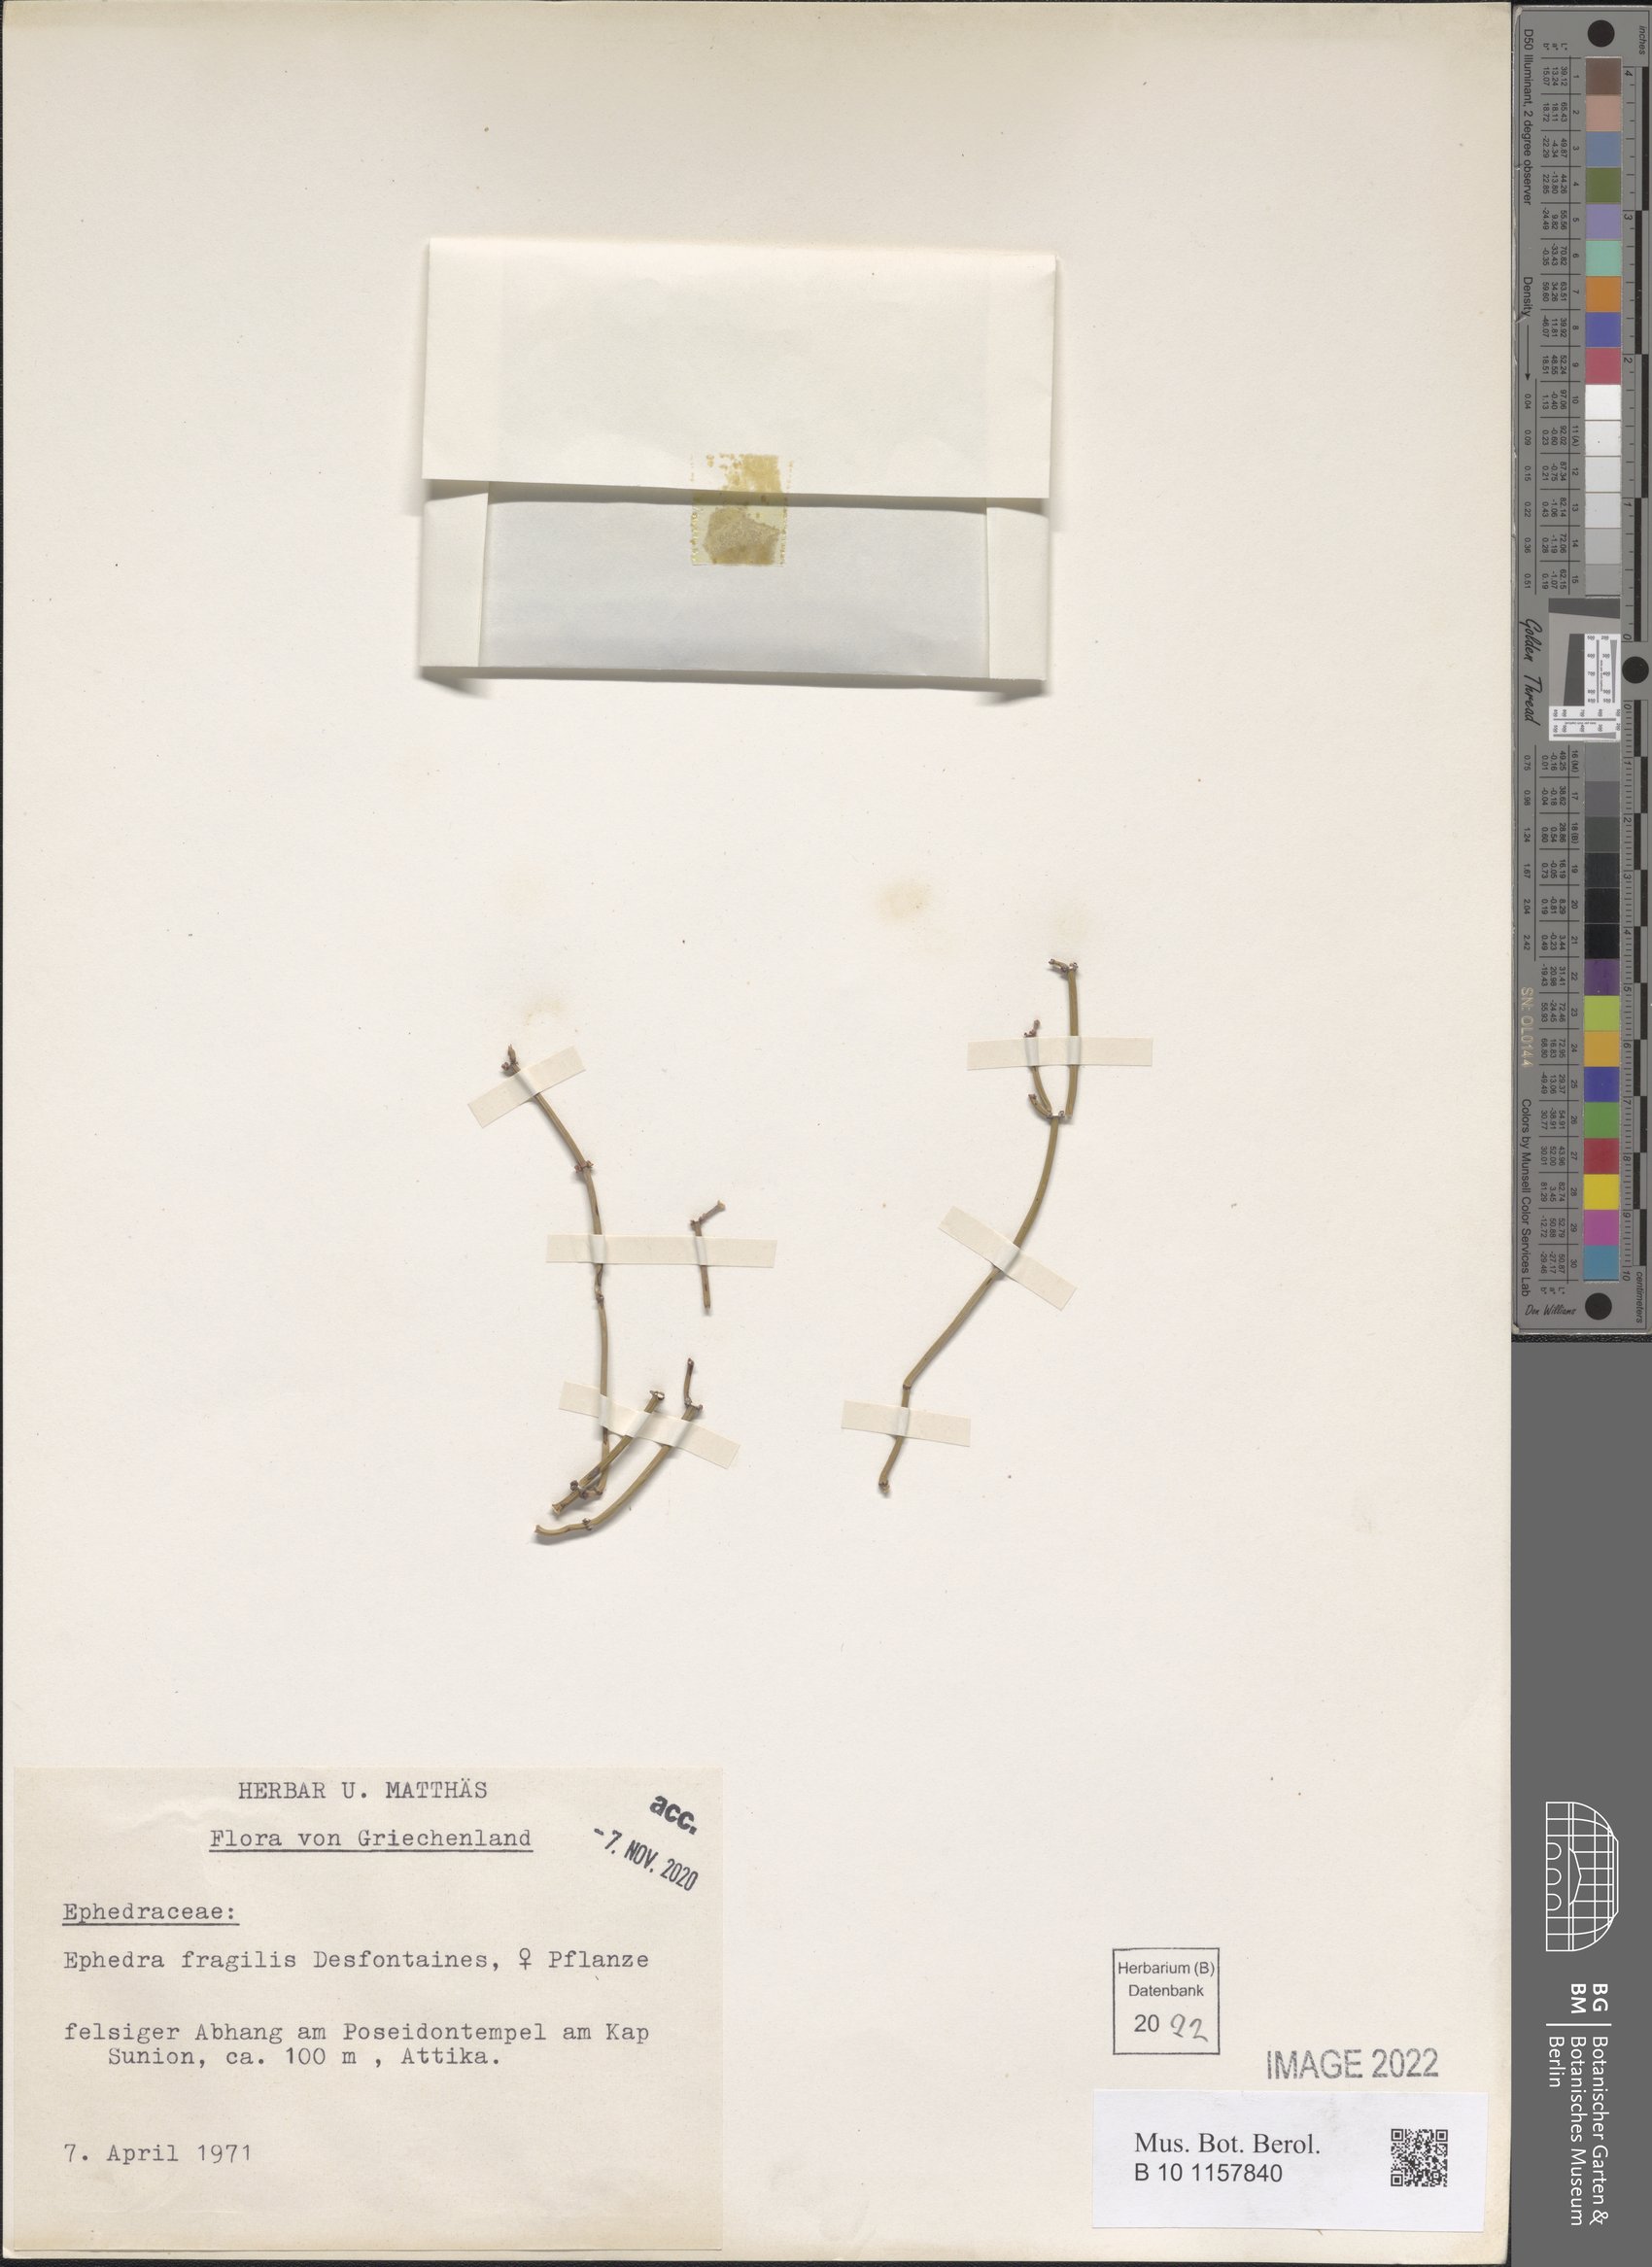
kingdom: Plantae
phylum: Tracheophyta
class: Gnetopsida
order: Ephedrales
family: Ephedraceae
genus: Ephedra
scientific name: Ephedra fragilis
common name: Joint pine
